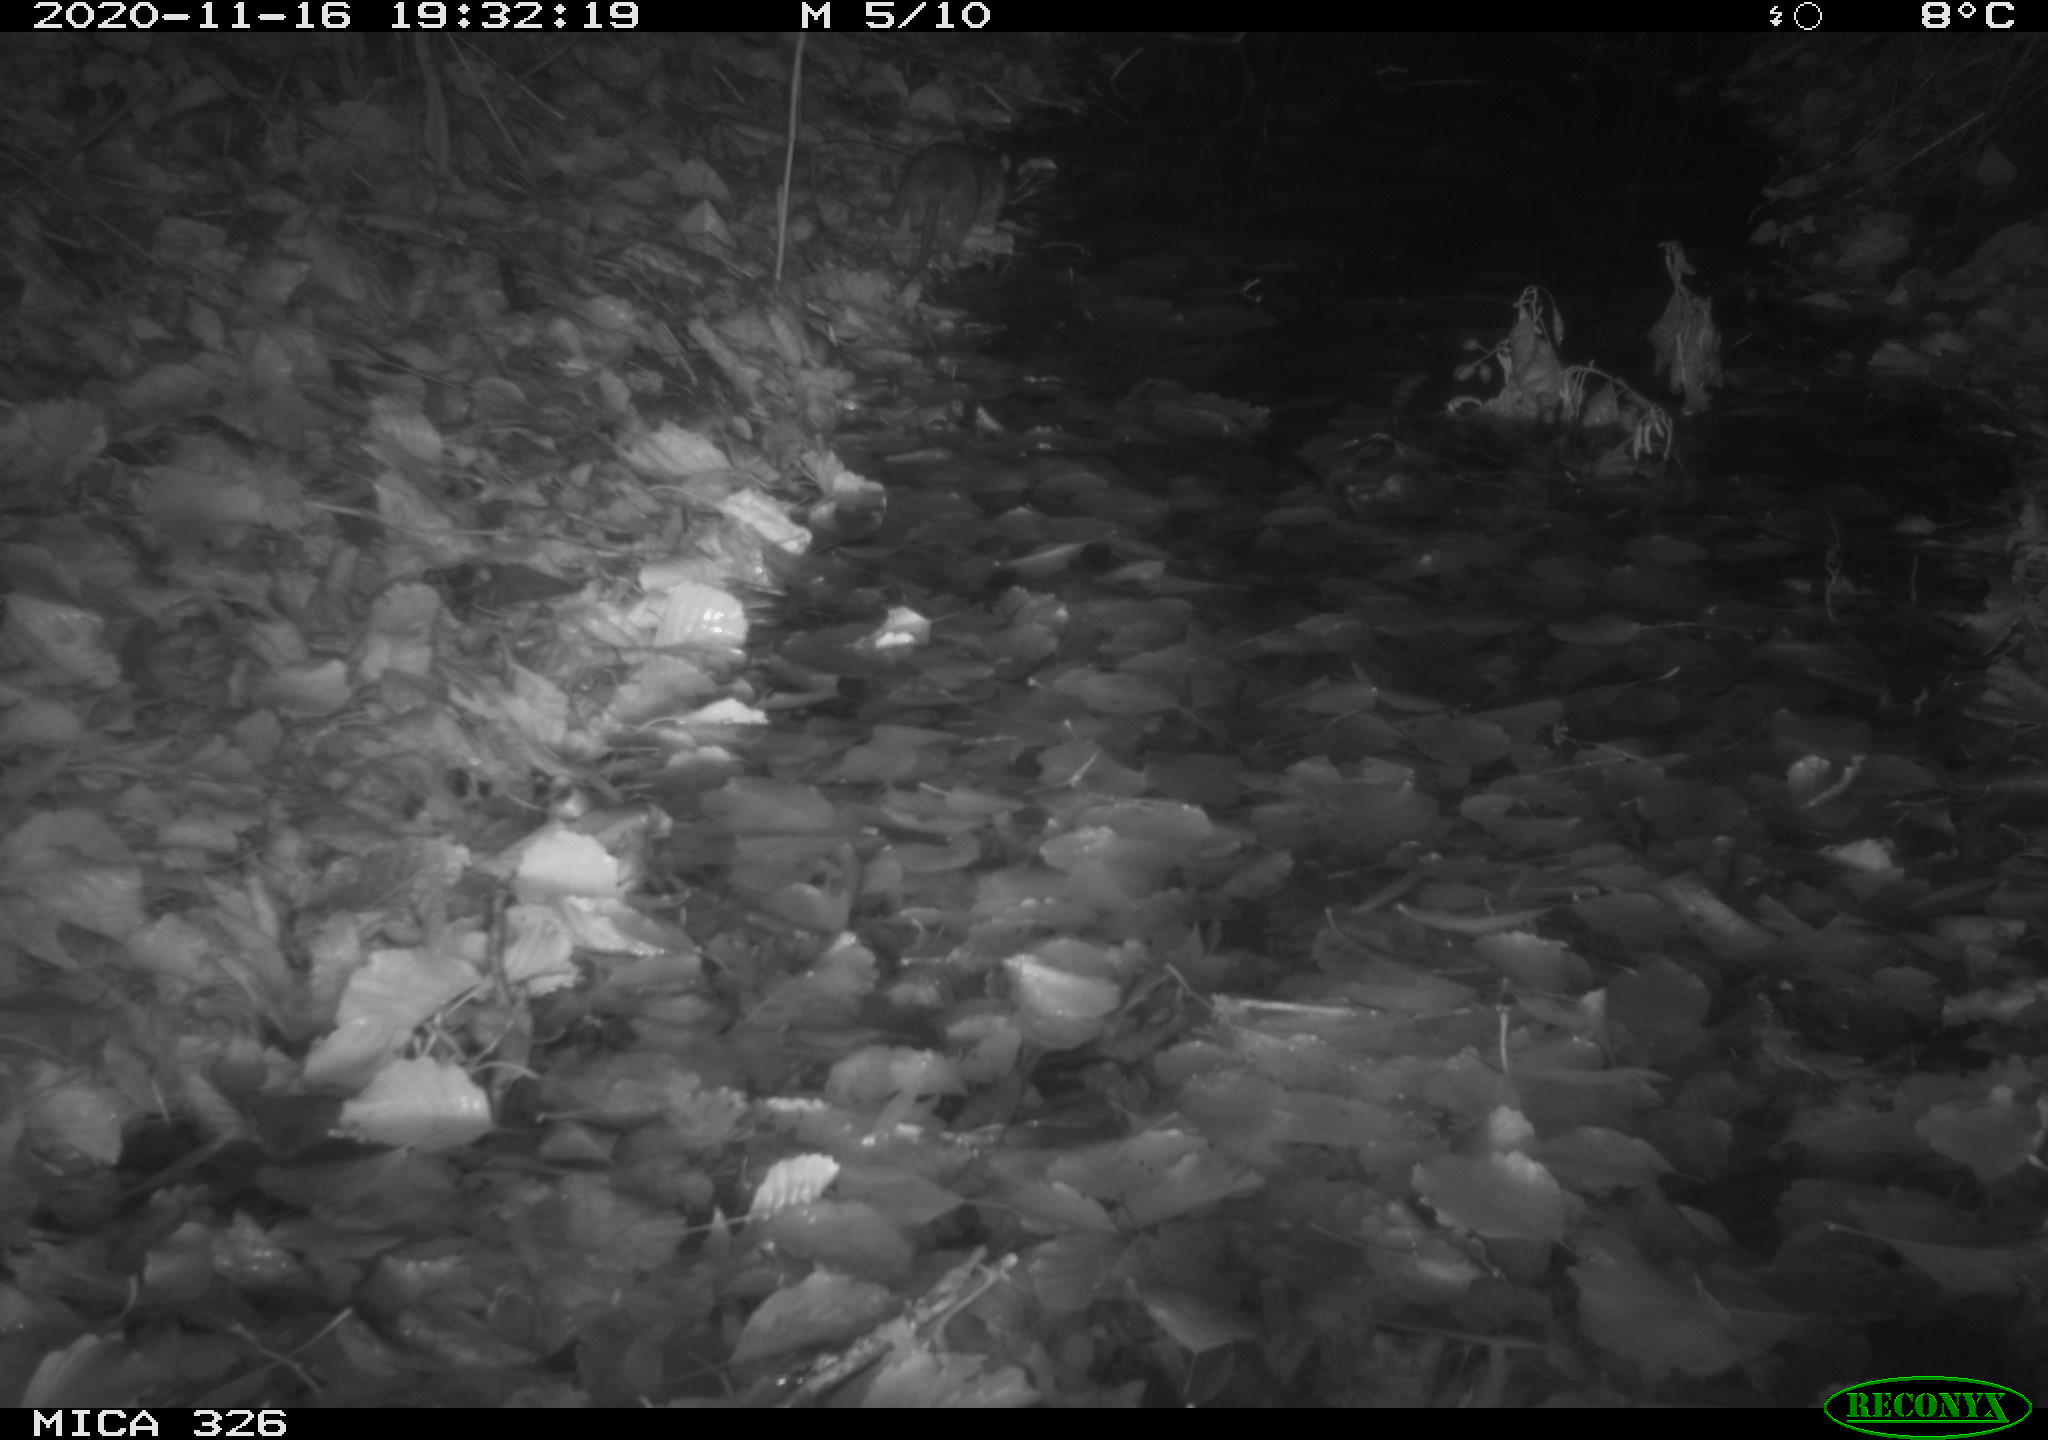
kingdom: Animalia
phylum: Chordata
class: Mammalia
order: Rodentia
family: Muridae
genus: Rattus
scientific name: Rattus norvegicus
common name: Brown rat
